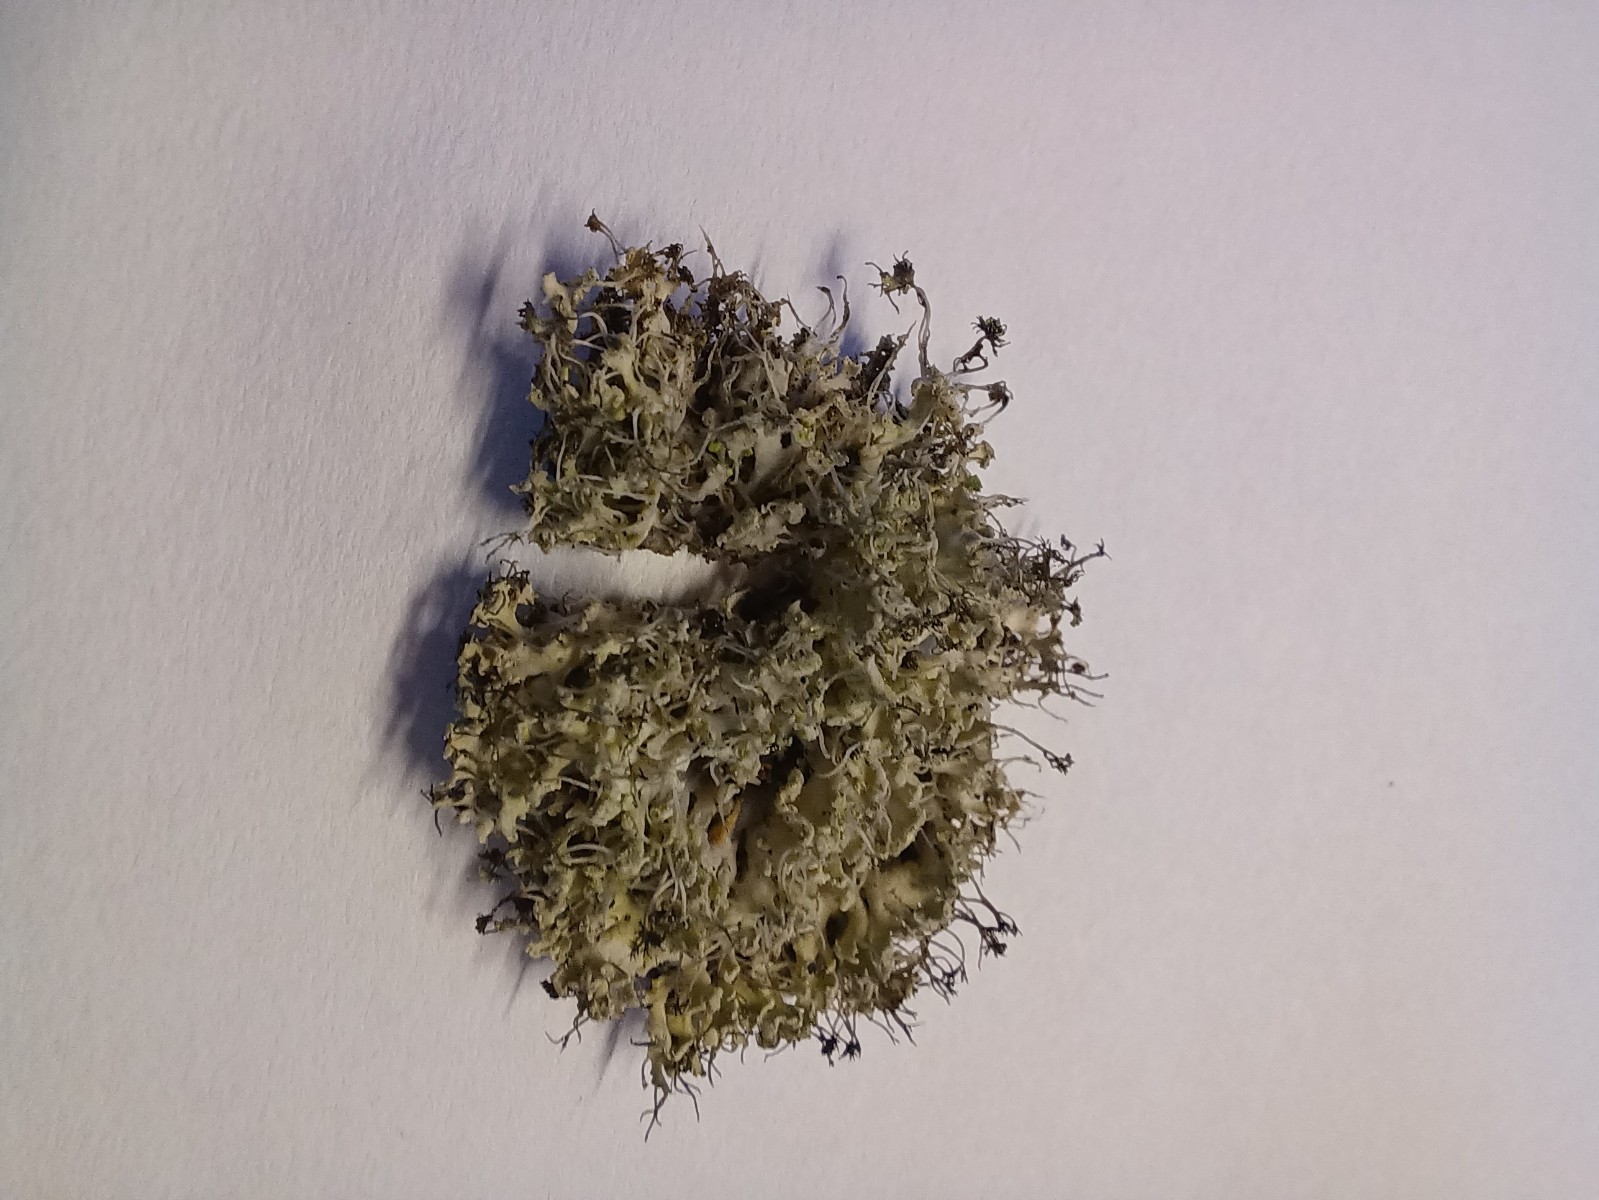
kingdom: Fungi
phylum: Ascomycota
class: Lecanoromycetes
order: Caliciales
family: Physciaceae
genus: Physcia
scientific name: Physcia tenella
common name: spæd rosetlav
